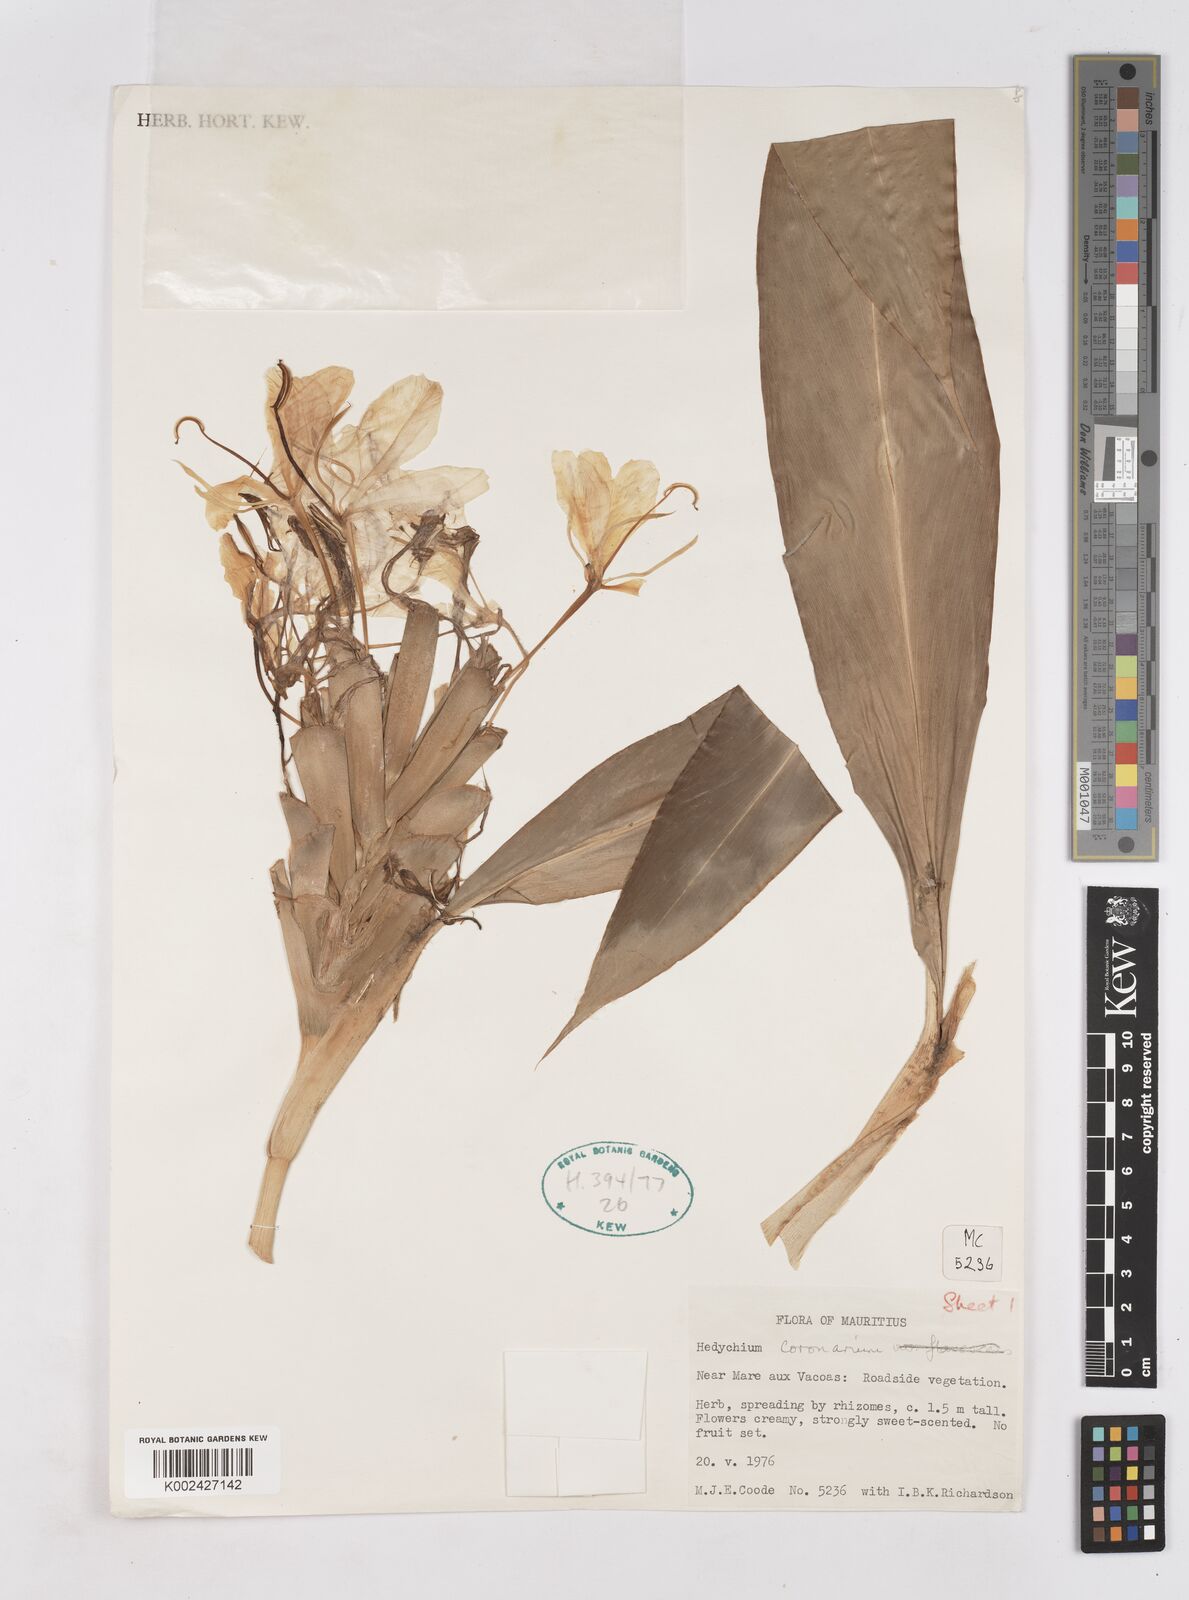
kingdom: Plantae
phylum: Tracheophyta
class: Liliopsida
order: Zingiberales
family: Zingiberaceae
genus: Hedychium
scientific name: Hedychium coronarium
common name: White garland-lily
